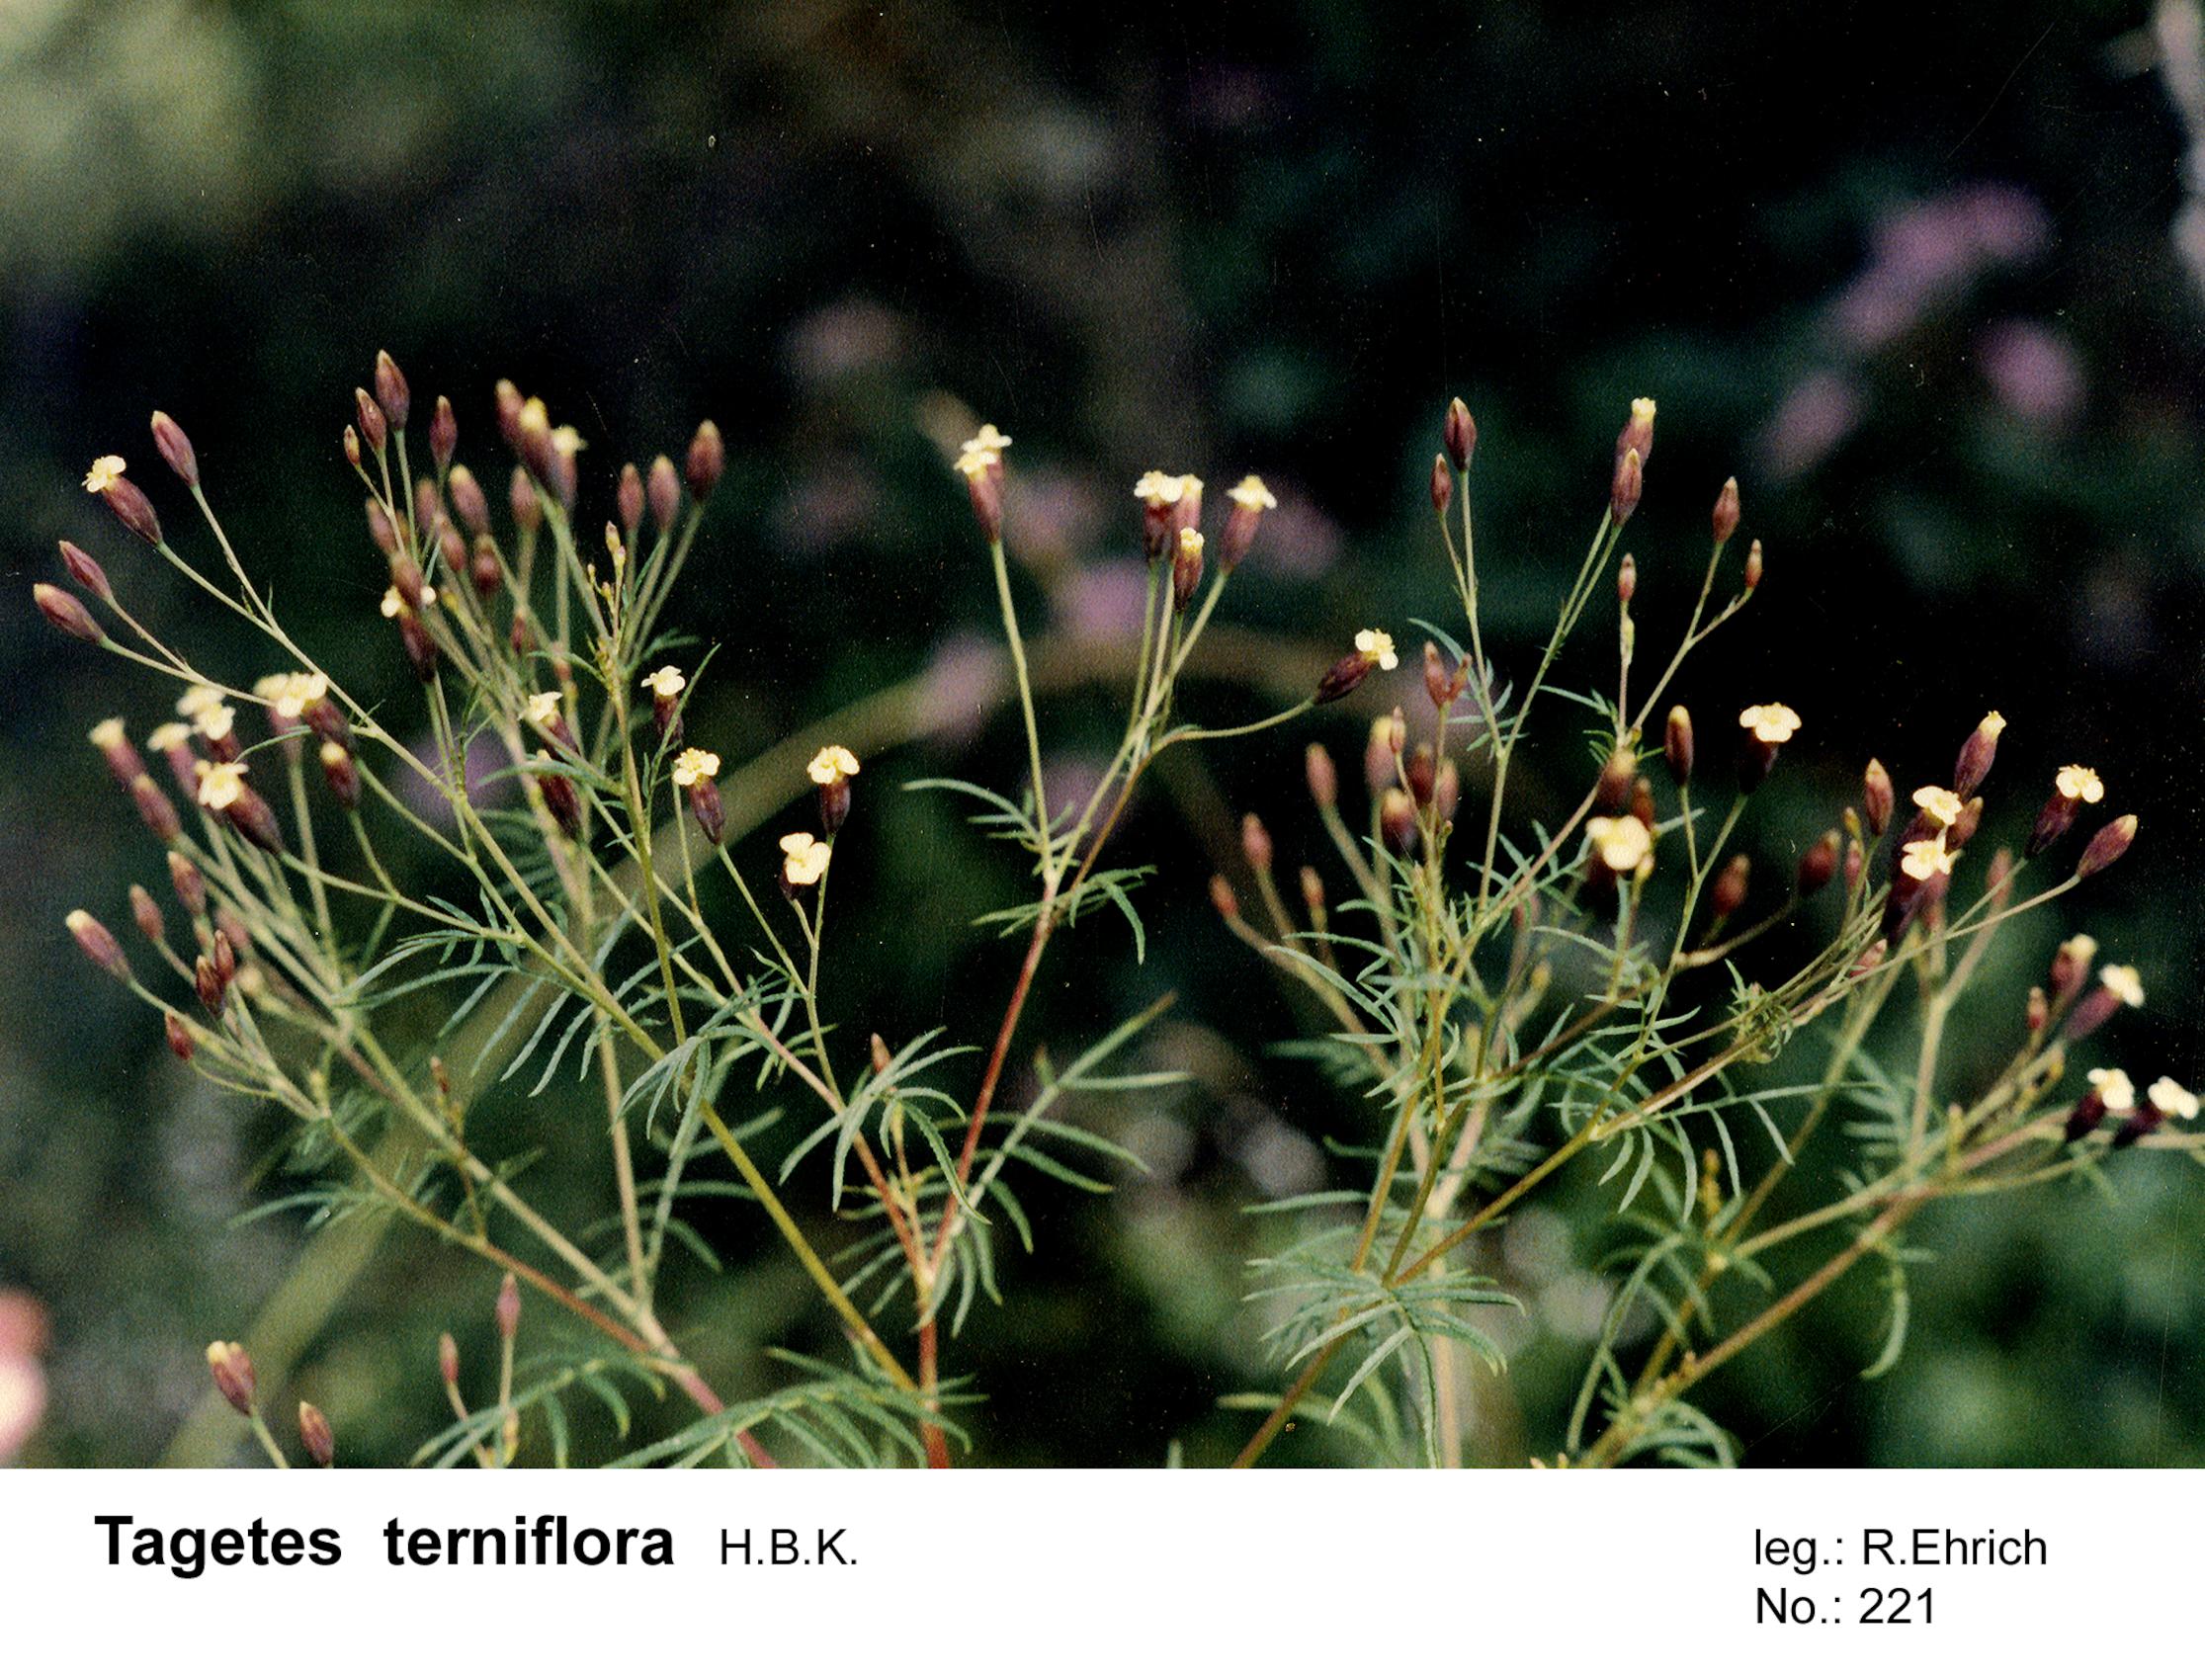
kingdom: Plantae
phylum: Tracheophyta
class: Magnoliopsida
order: Asterales
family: Asteraceae
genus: Tagetes
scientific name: Tagetes terniflora
